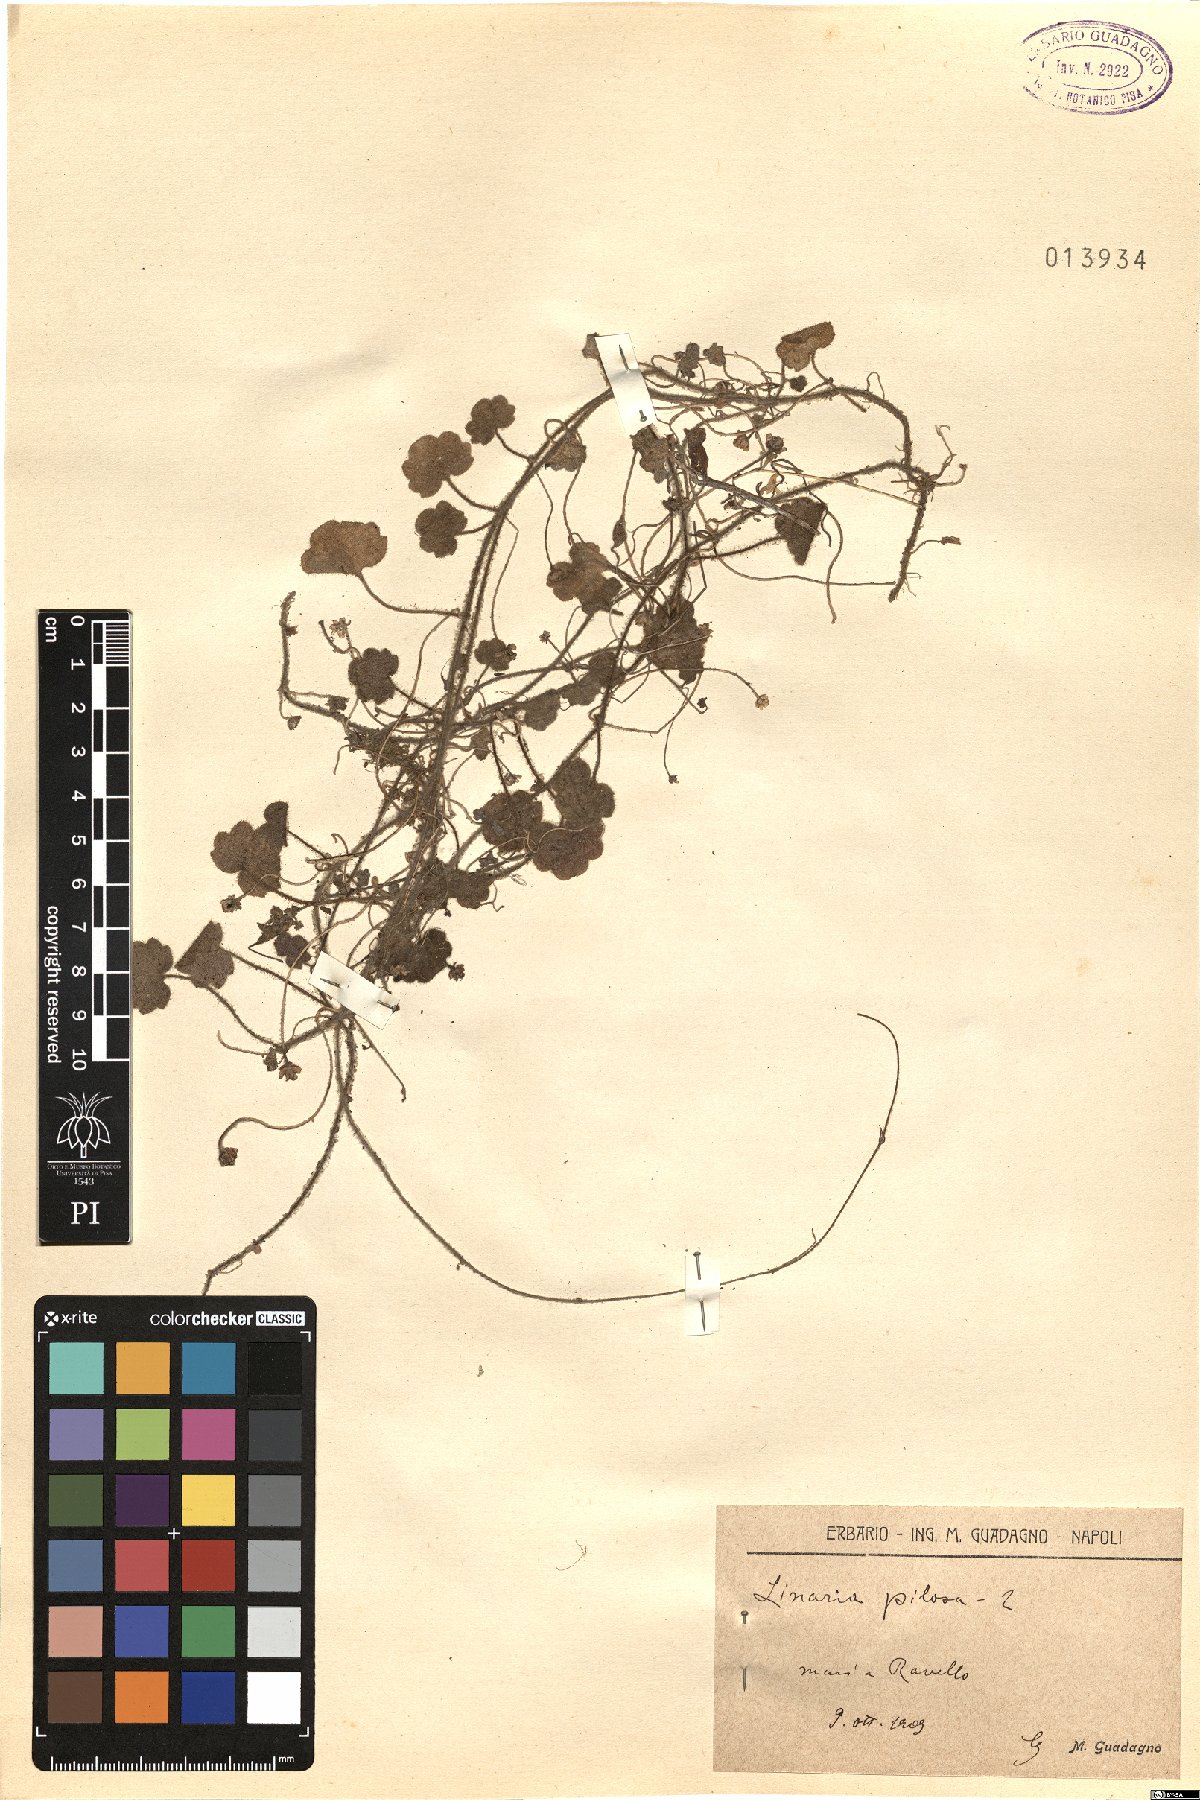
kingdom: Plantae
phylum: Tracheophyta
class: Magnoliopsida
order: Lamiales
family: Plantaginaceae
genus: Sibthorpia
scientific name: Sibthorpia europaea
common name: Cornish moneywort
